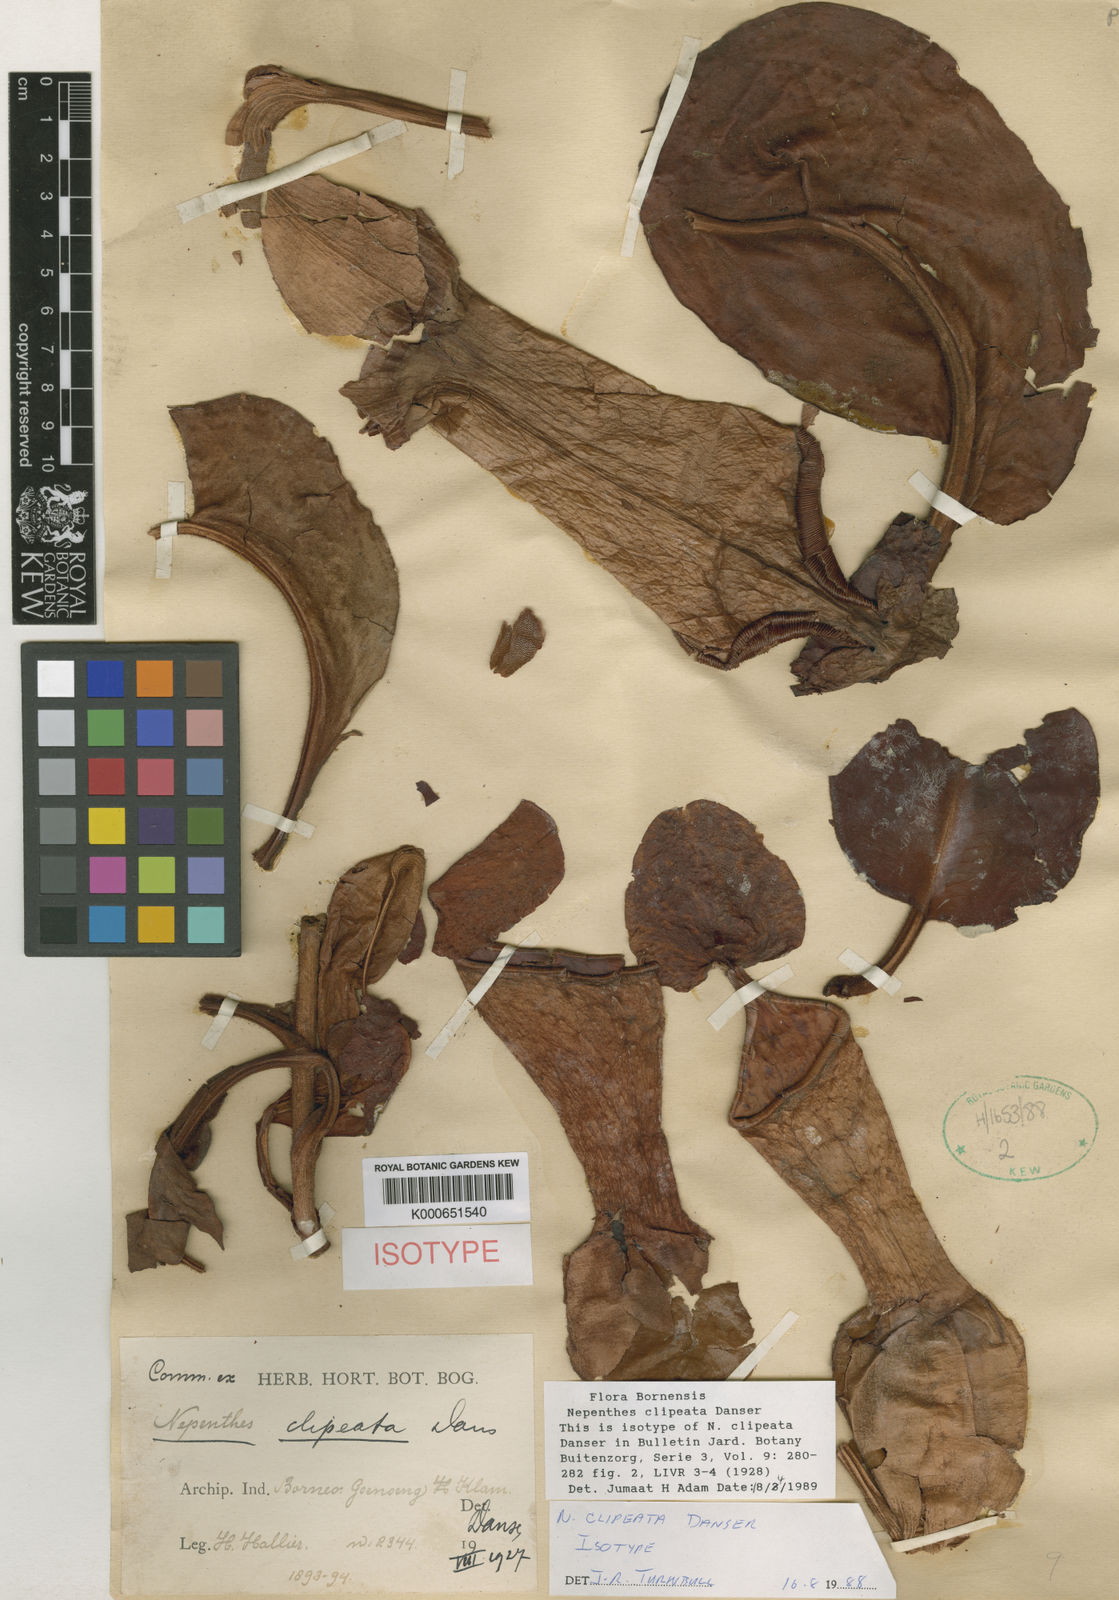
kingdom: Plantae
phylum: Tracheophyta
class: Magnoliopsida
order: Caryophyllales
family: Nepenthaceae
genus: Nepenthes
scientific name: Nepenthes clipeata
